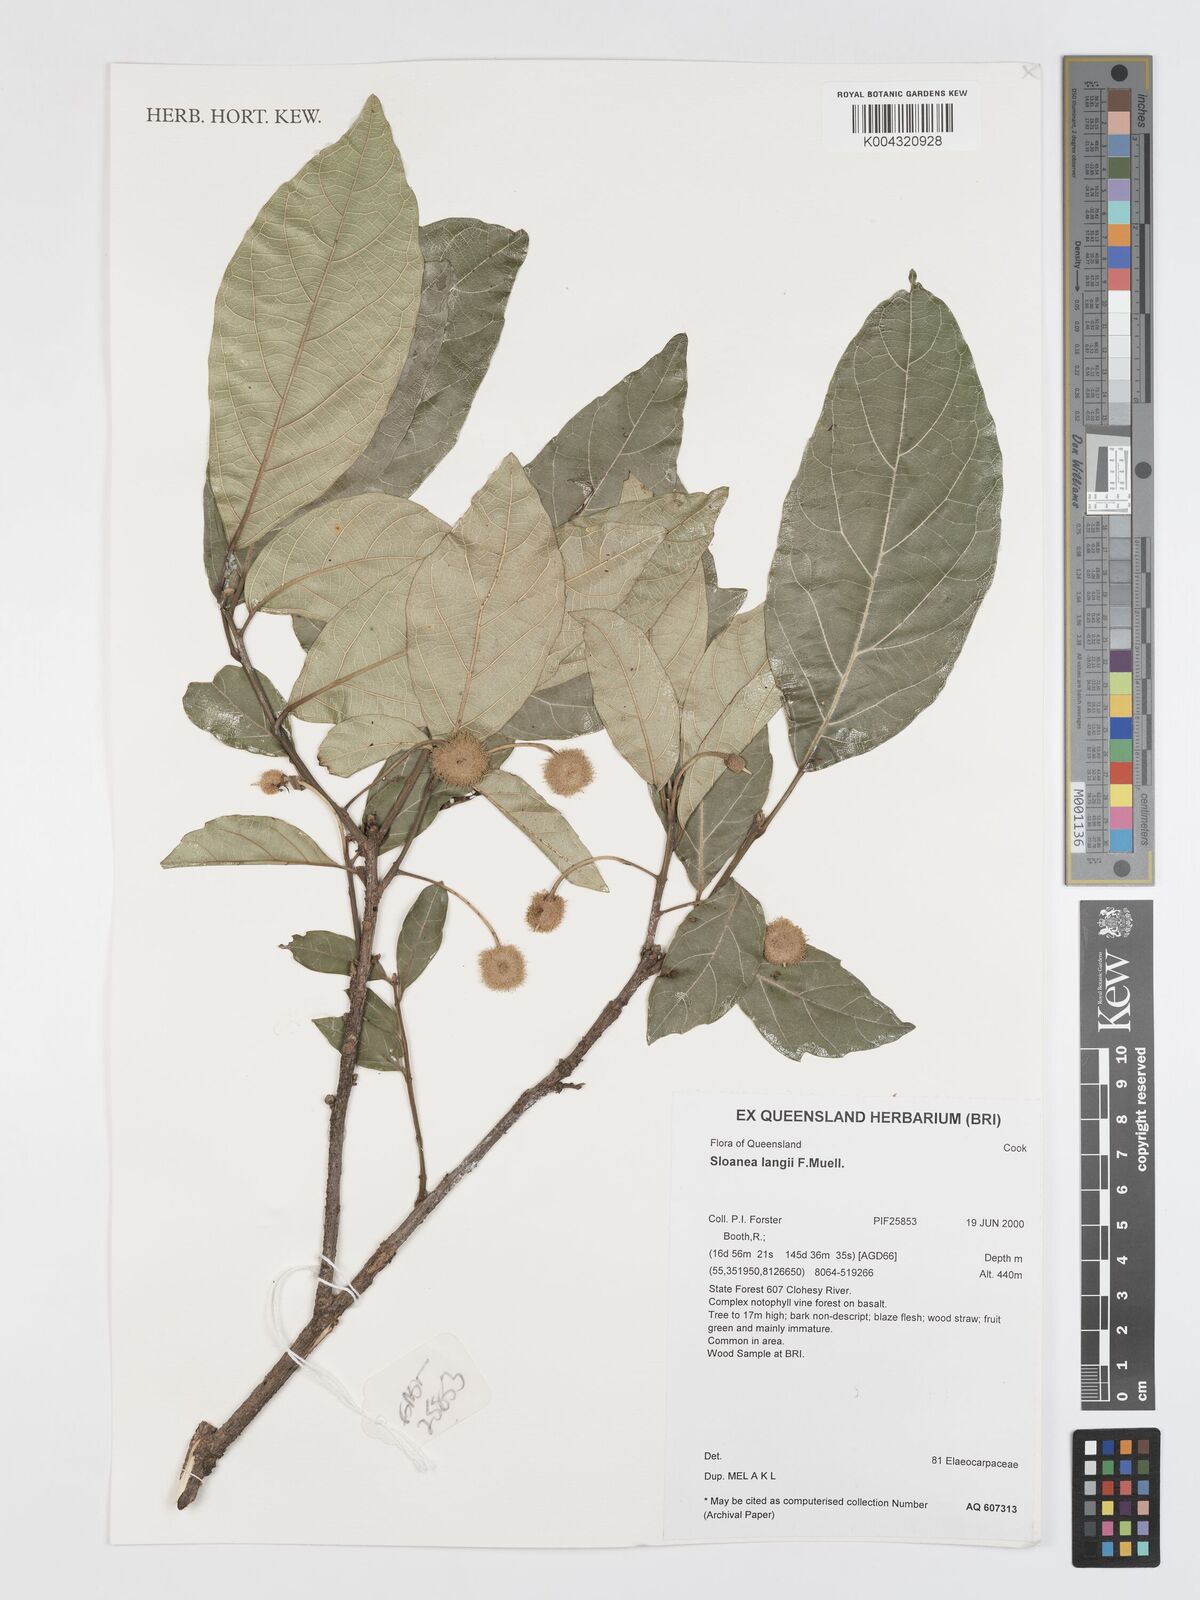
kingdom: Plantae
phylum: Tracheophyta
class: Magnoliopsida
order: Oxalidales
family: Elaeocarpaceae
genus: Sloanea
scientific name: Sloanea langii
